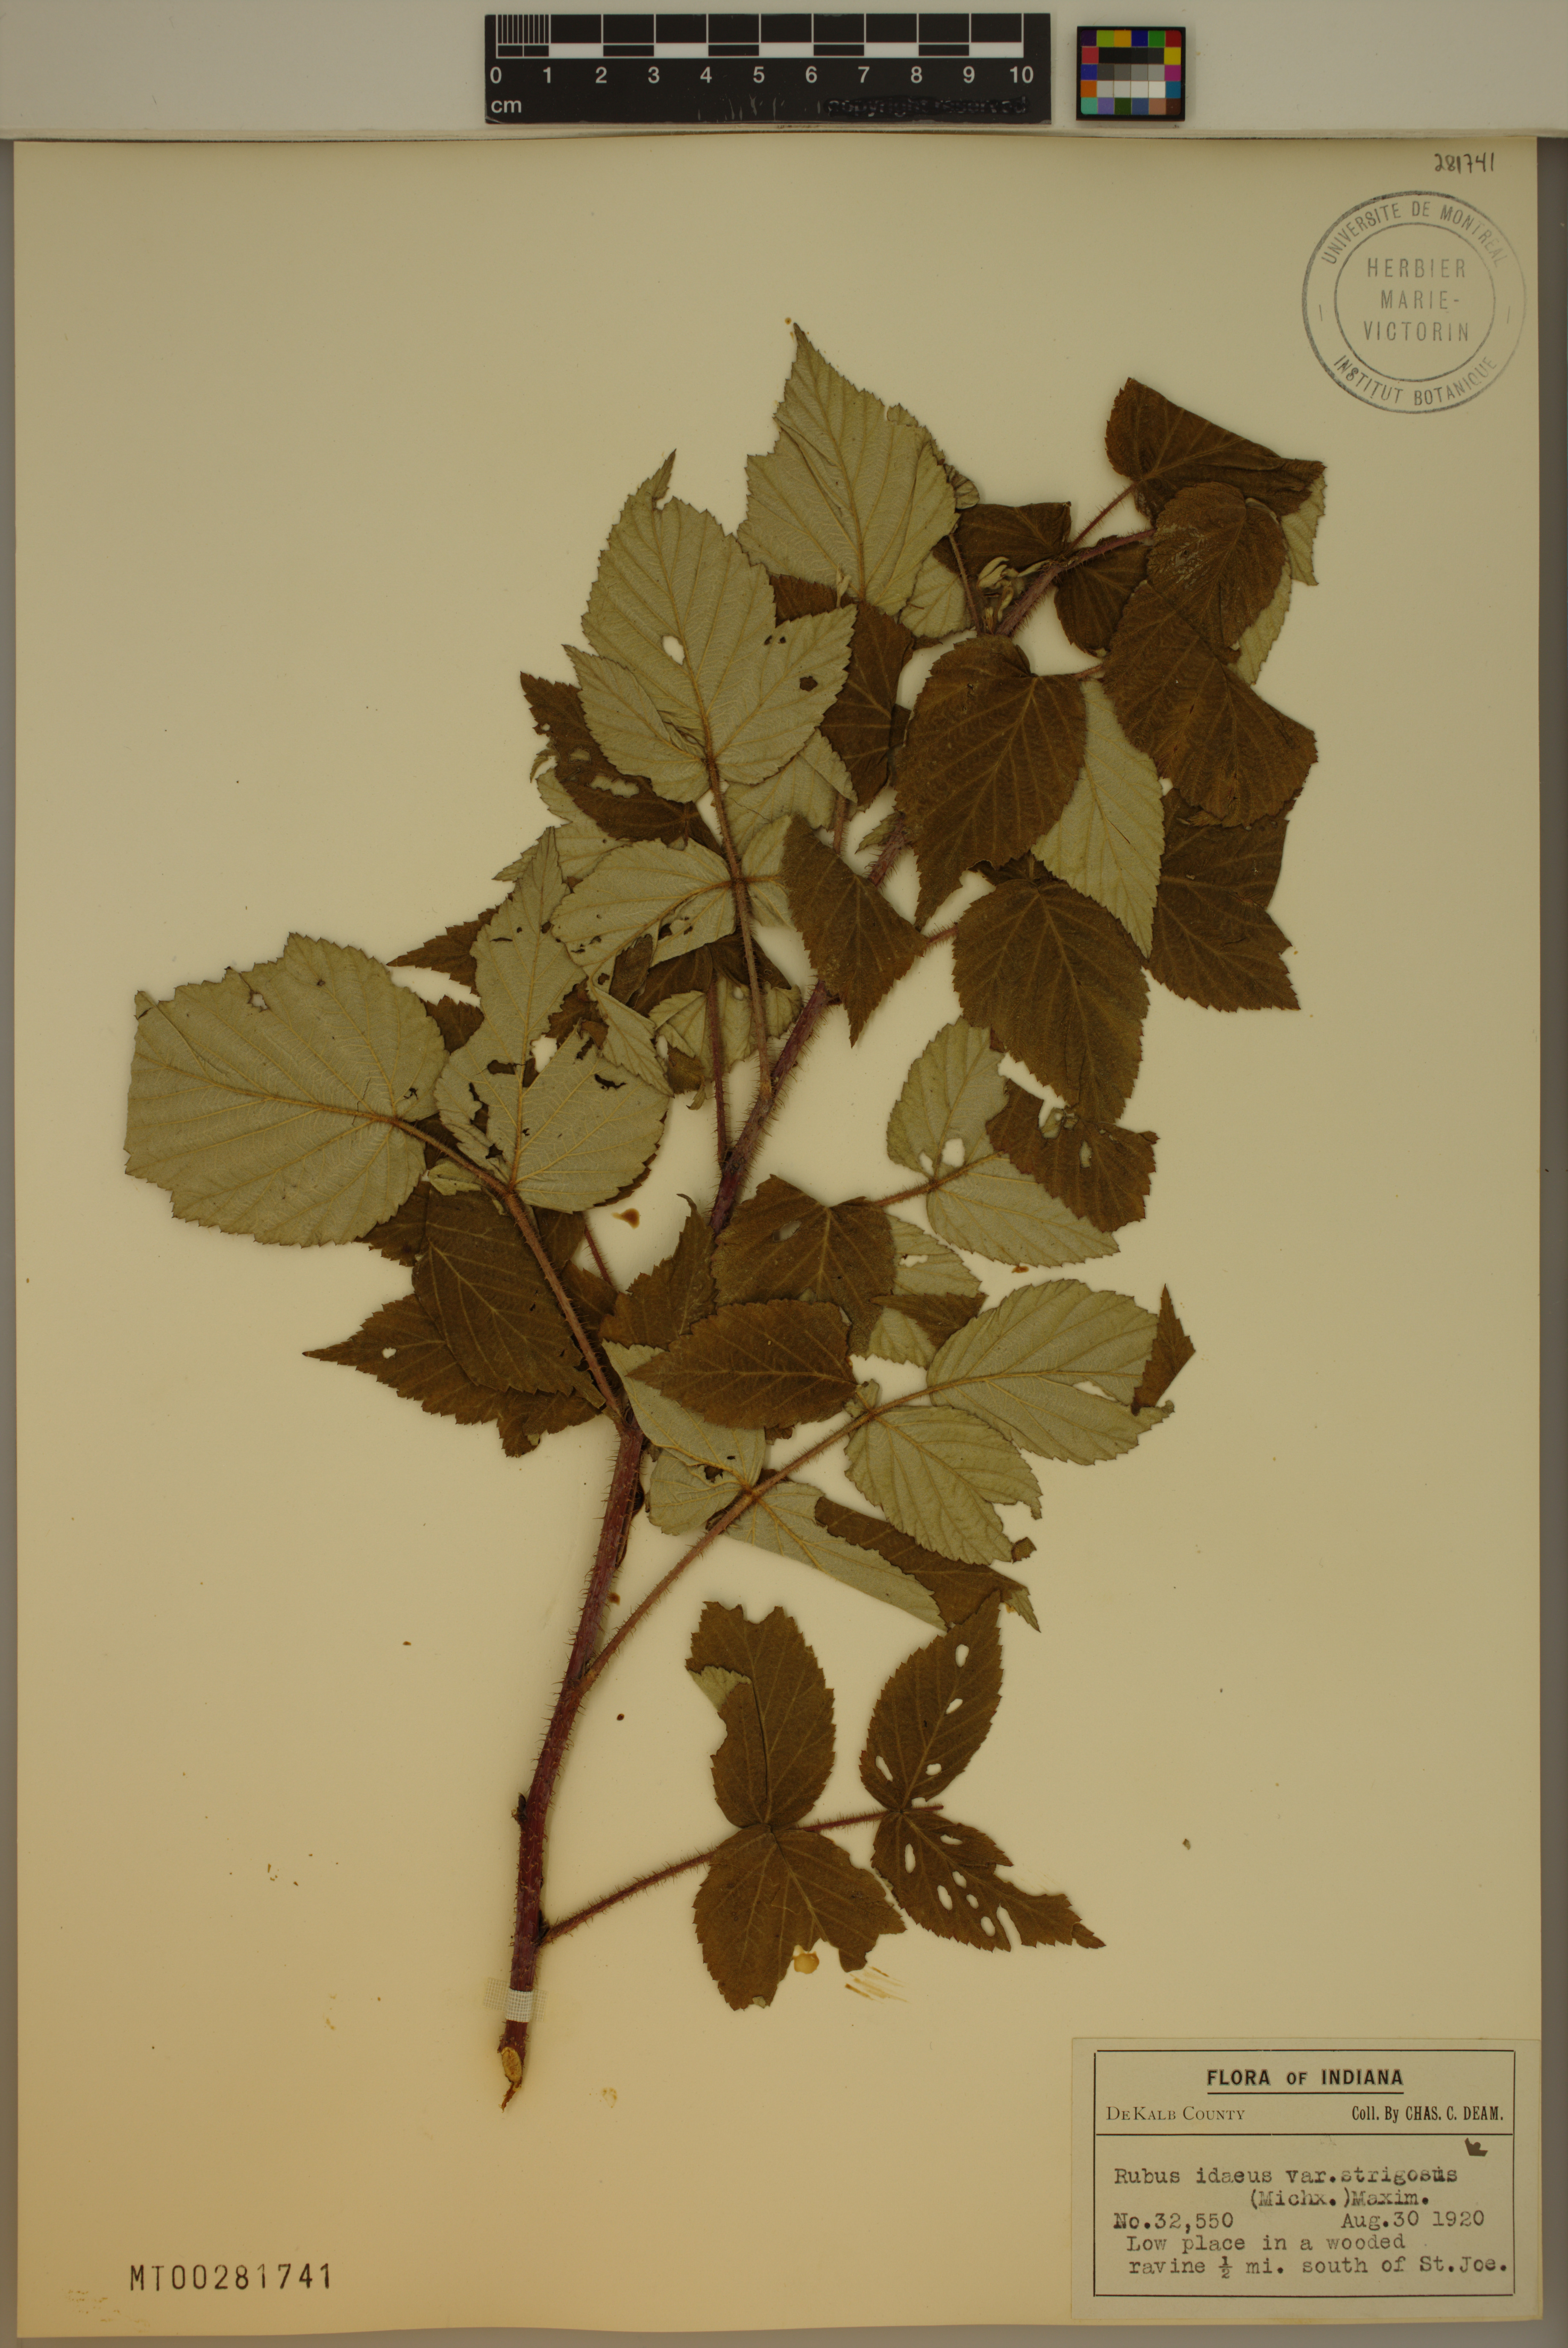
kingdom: Plantae
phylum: Tracheophyta
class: Magnoliopsida
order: Rosales
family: Rosaceae
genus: Rubus
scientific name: Rubus idaeus
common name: Raspberry
